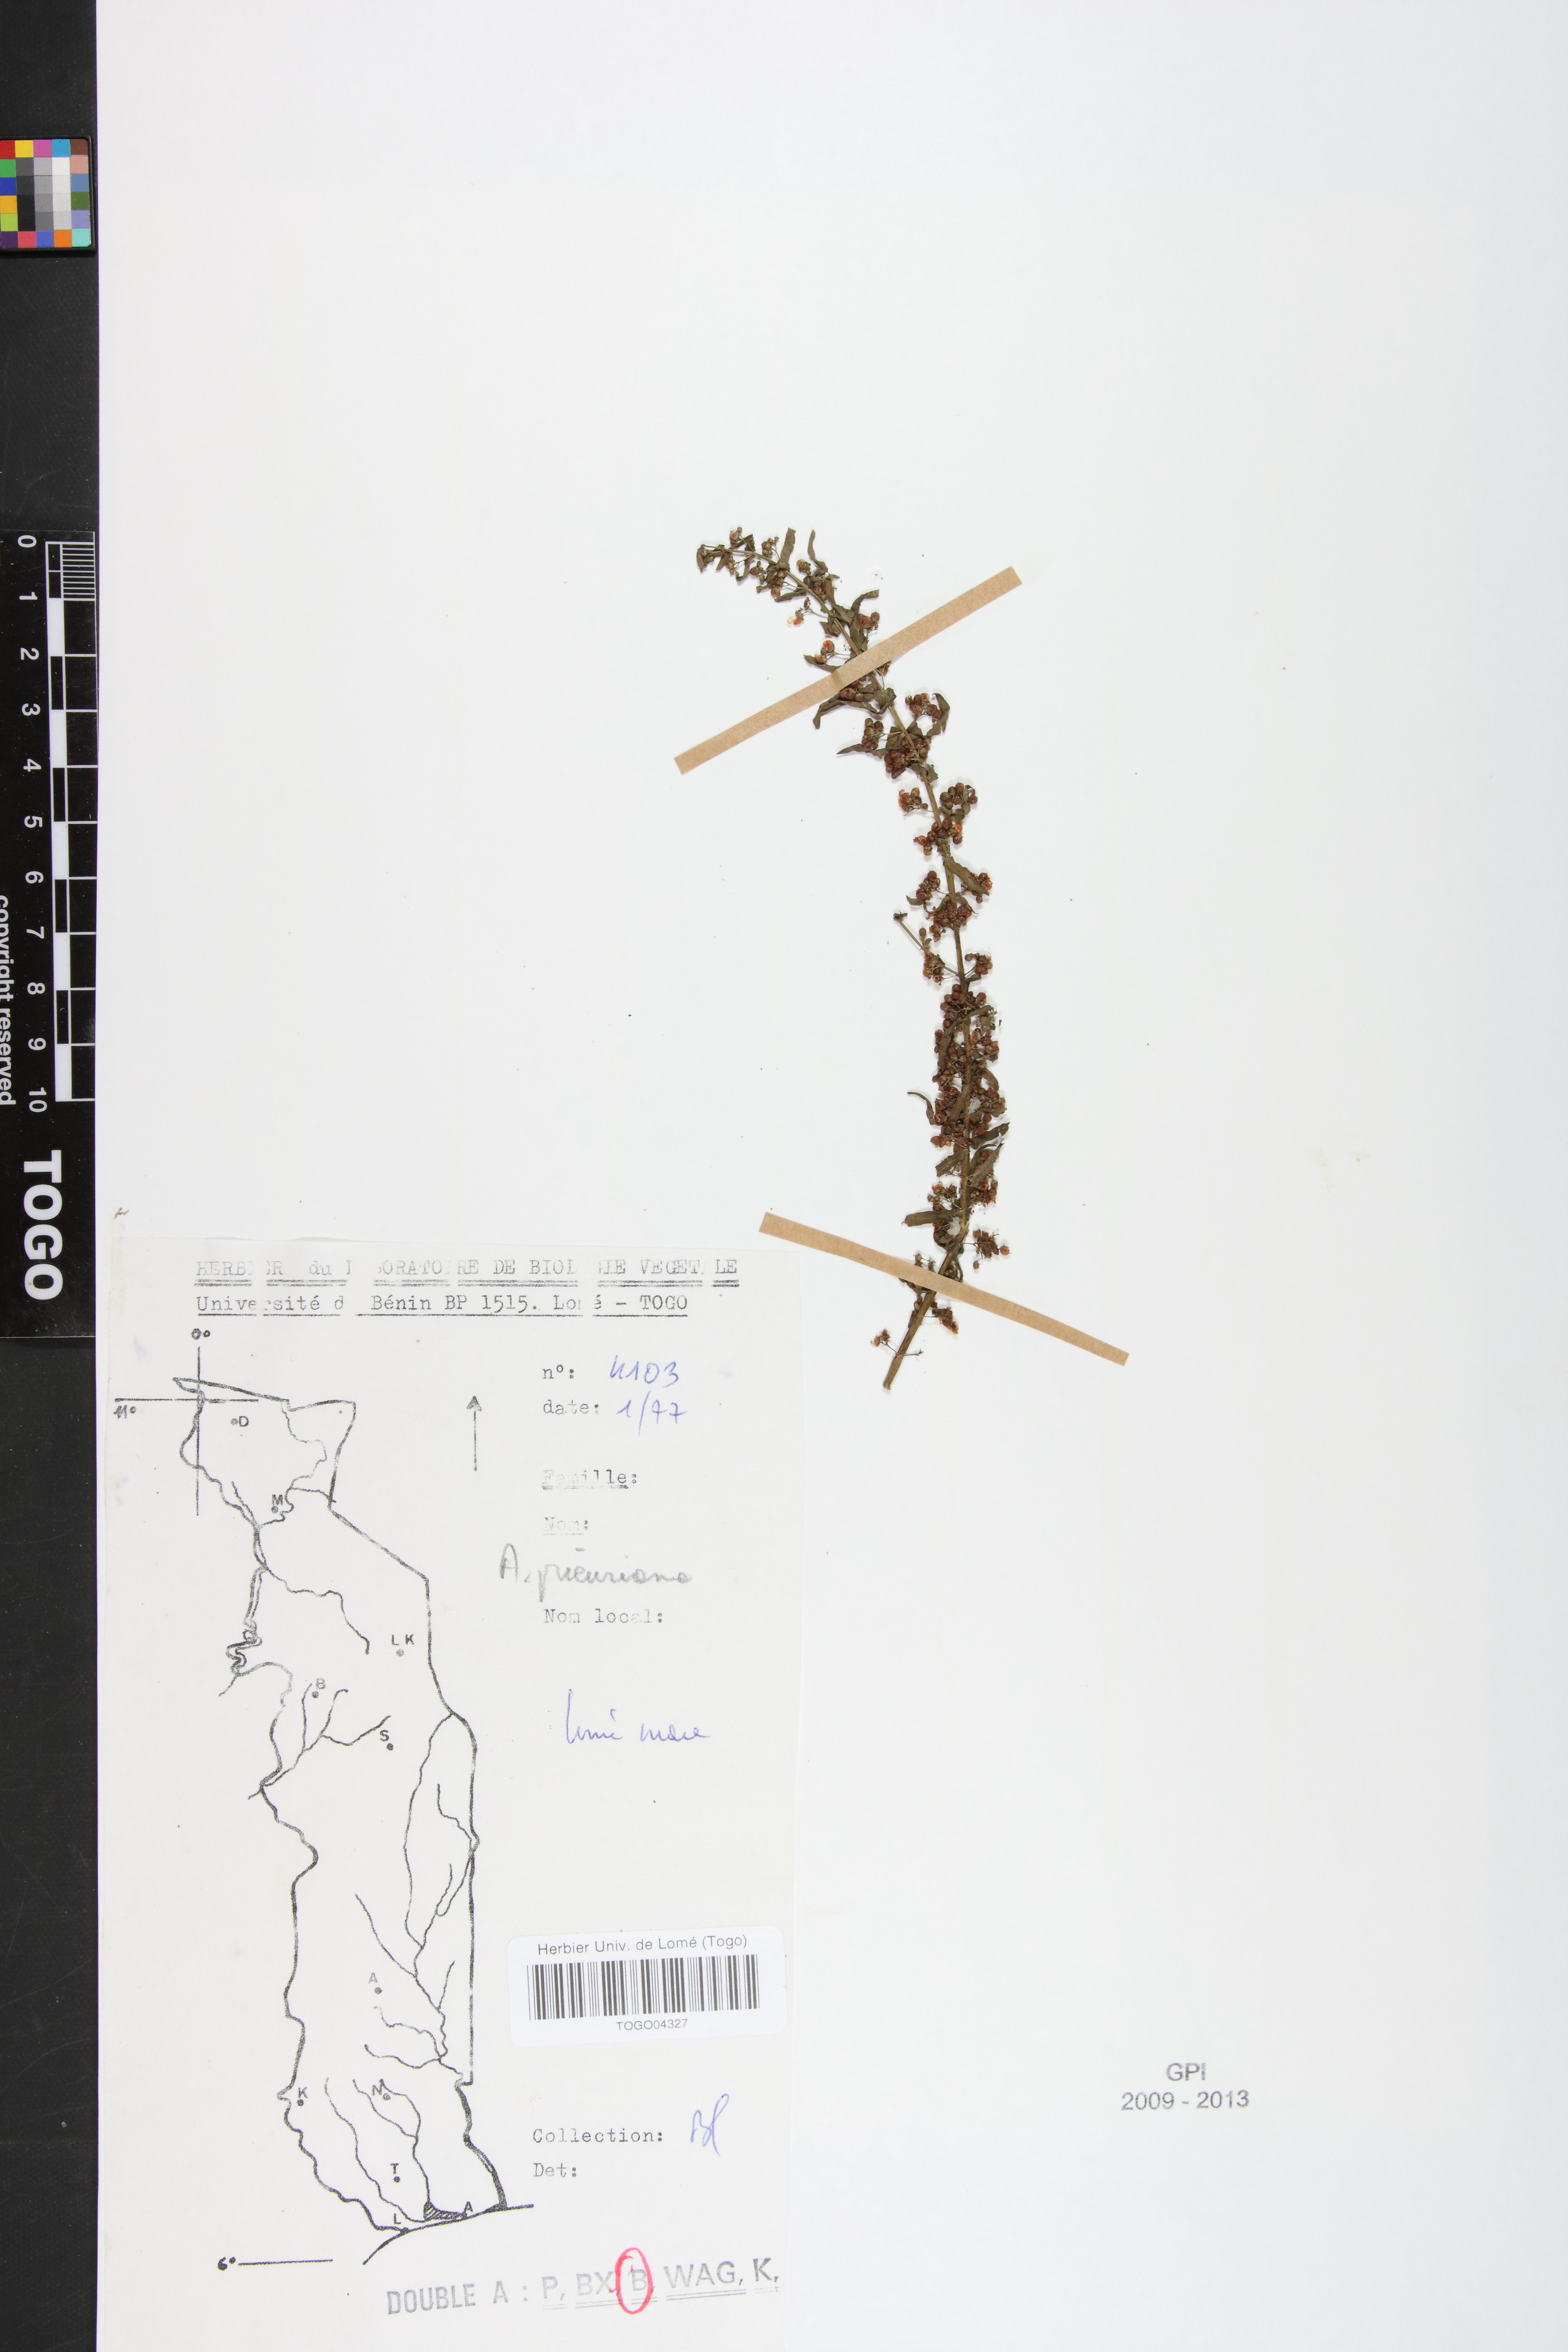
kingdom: Plantae
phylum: Tracheophyta
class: Magnoliopsida
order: Myrtales
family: Lythraceae
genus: Ammannia
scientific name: Ammannia prieureana
